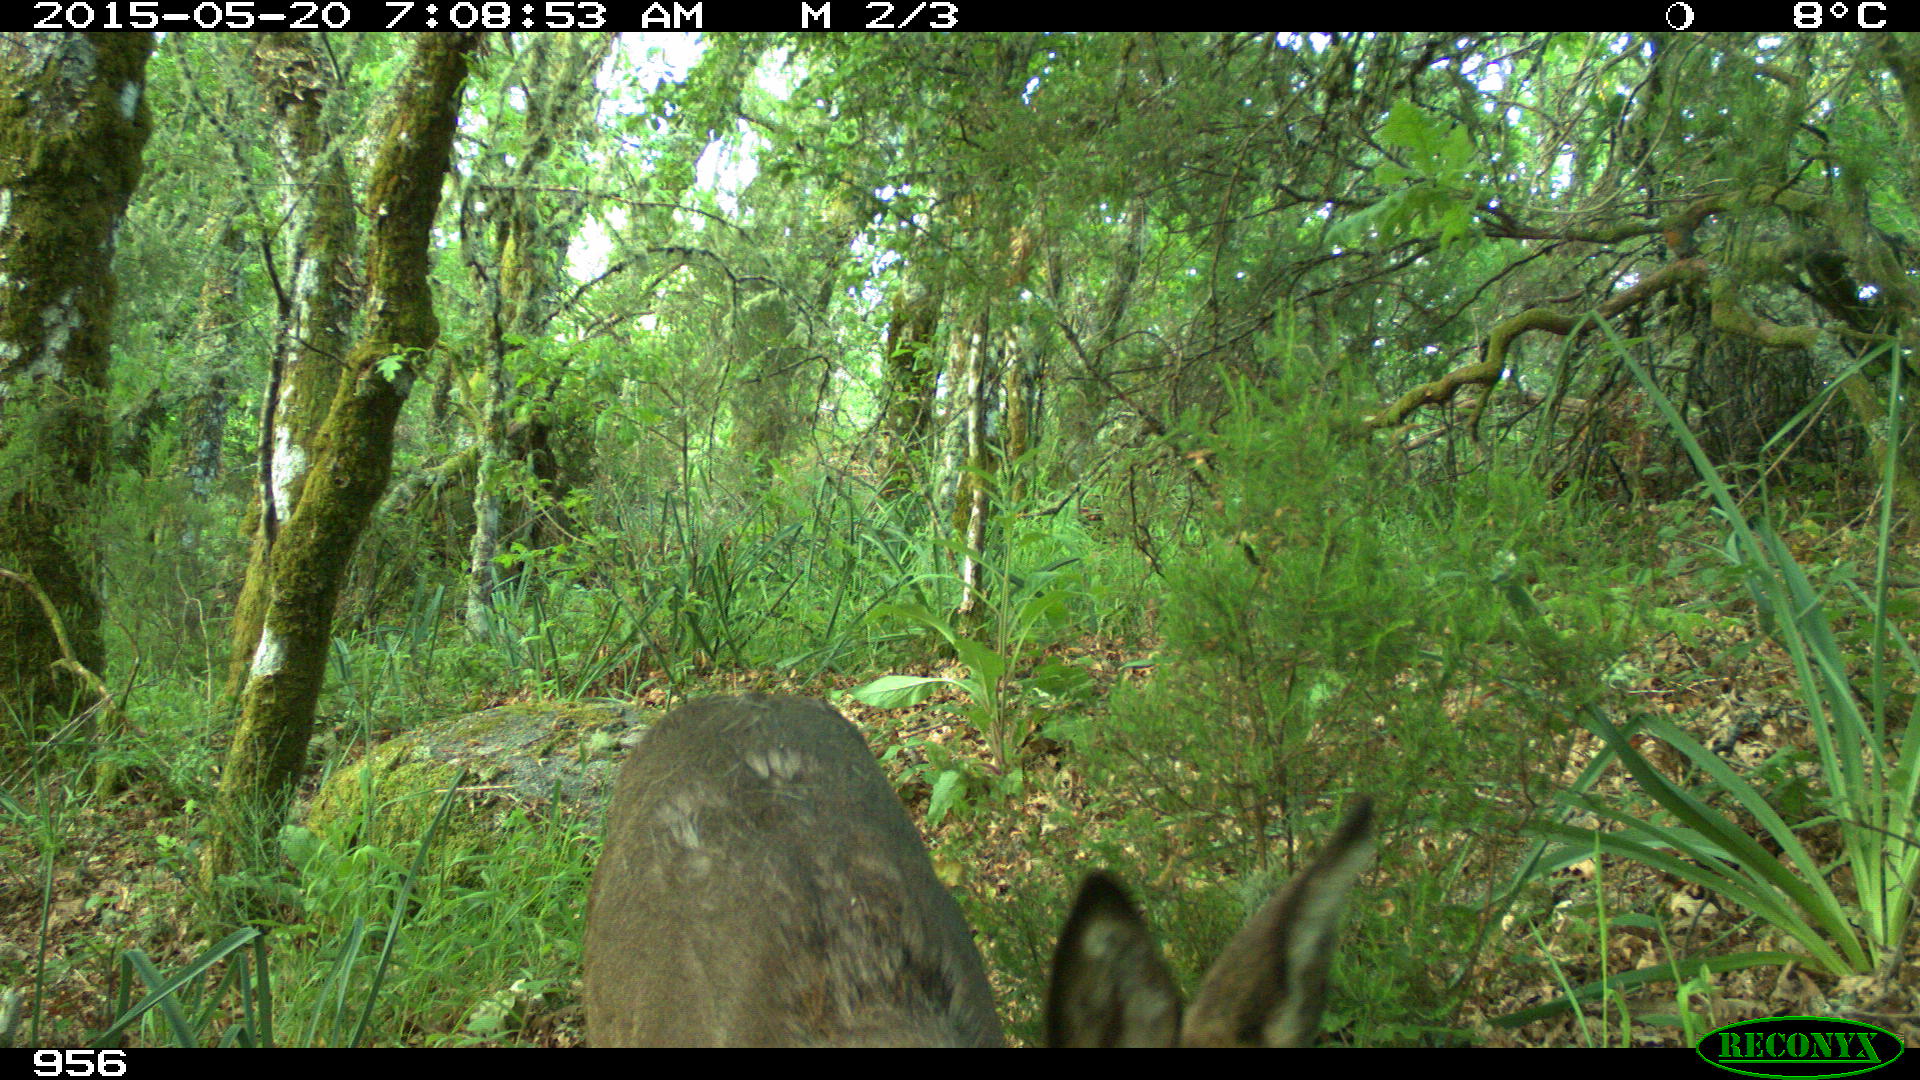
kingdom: Animalia
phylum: Chordata
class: Mammalia
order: Artiodactyla
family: Cervidae
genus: Capreolus
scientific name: Capreolus capreolus
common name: Western roe deer
